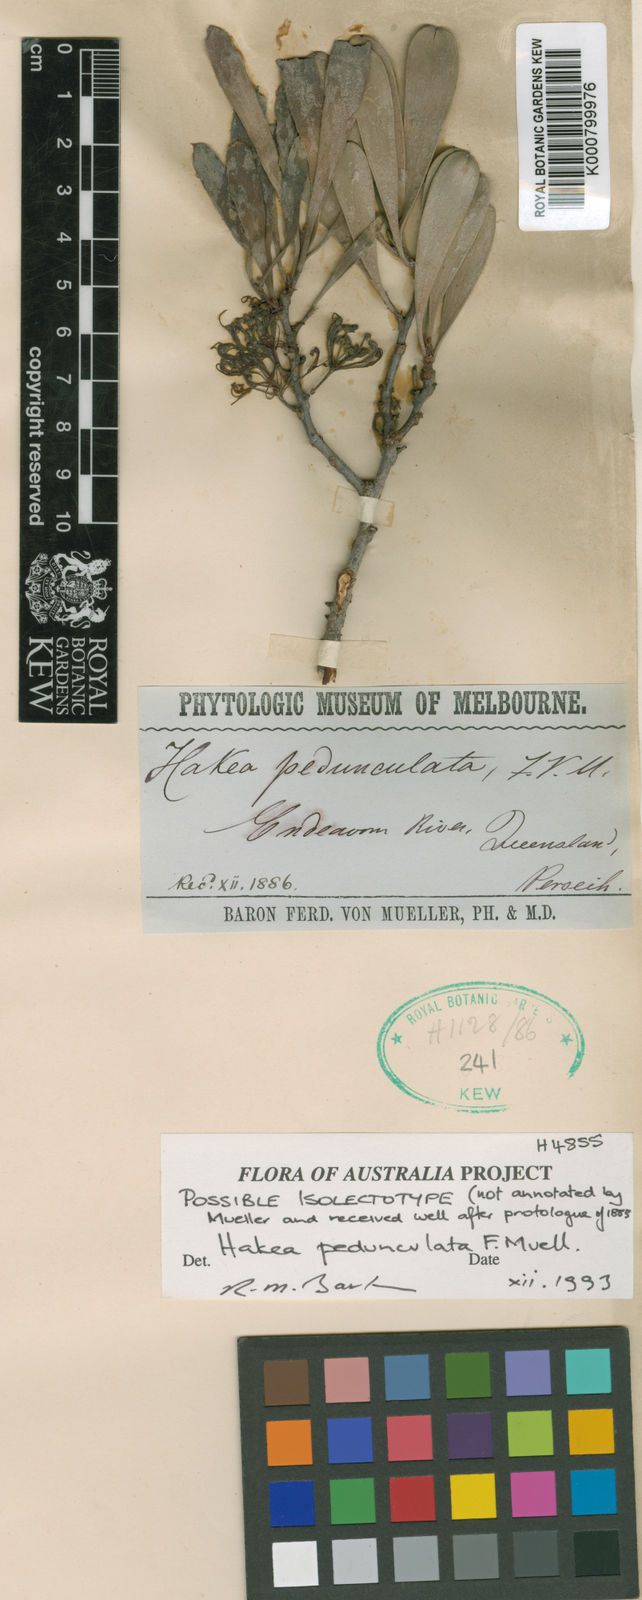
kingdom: Plantae
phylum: Tracheophyta
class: Magnoliopsida
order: Proteales
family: Proteaceae
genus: Hakea
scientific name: Hakea pedunculata
